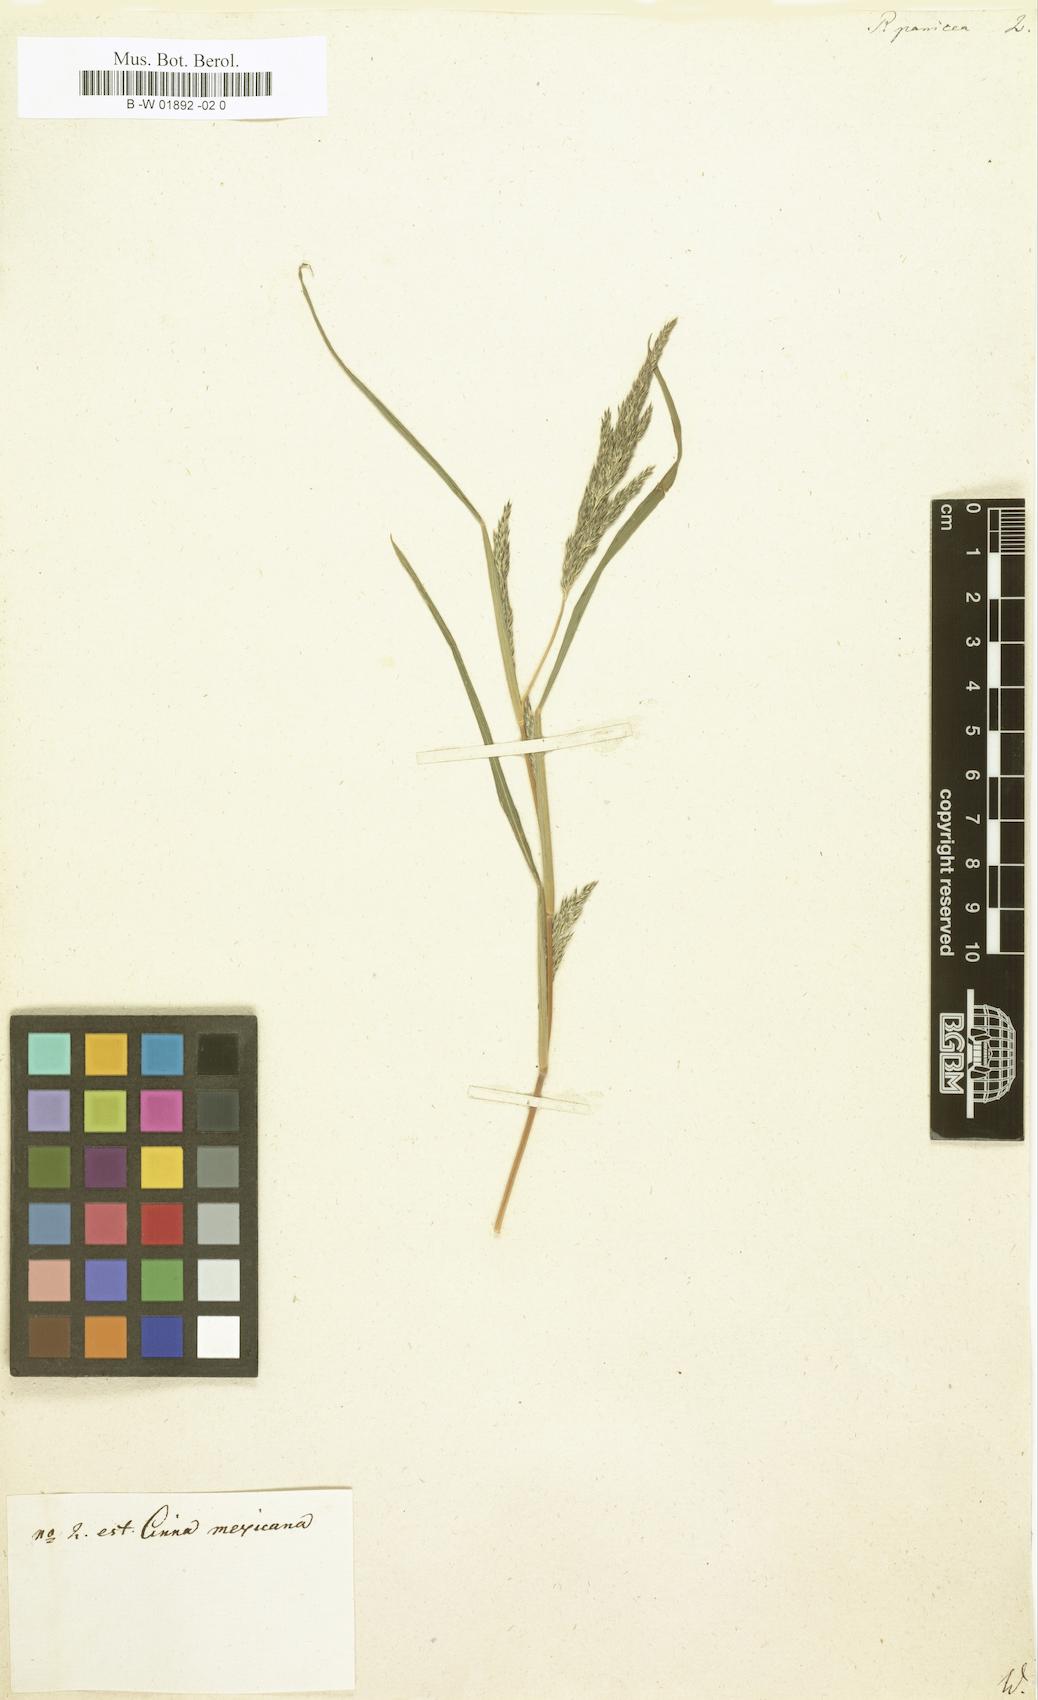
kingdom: Plantae
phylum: Tracheophyta
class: Liliopsida
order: Poales
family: Poaceae
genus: Leptochloa
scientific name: Leptochloa panicea
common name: Mucronate sprangletop
